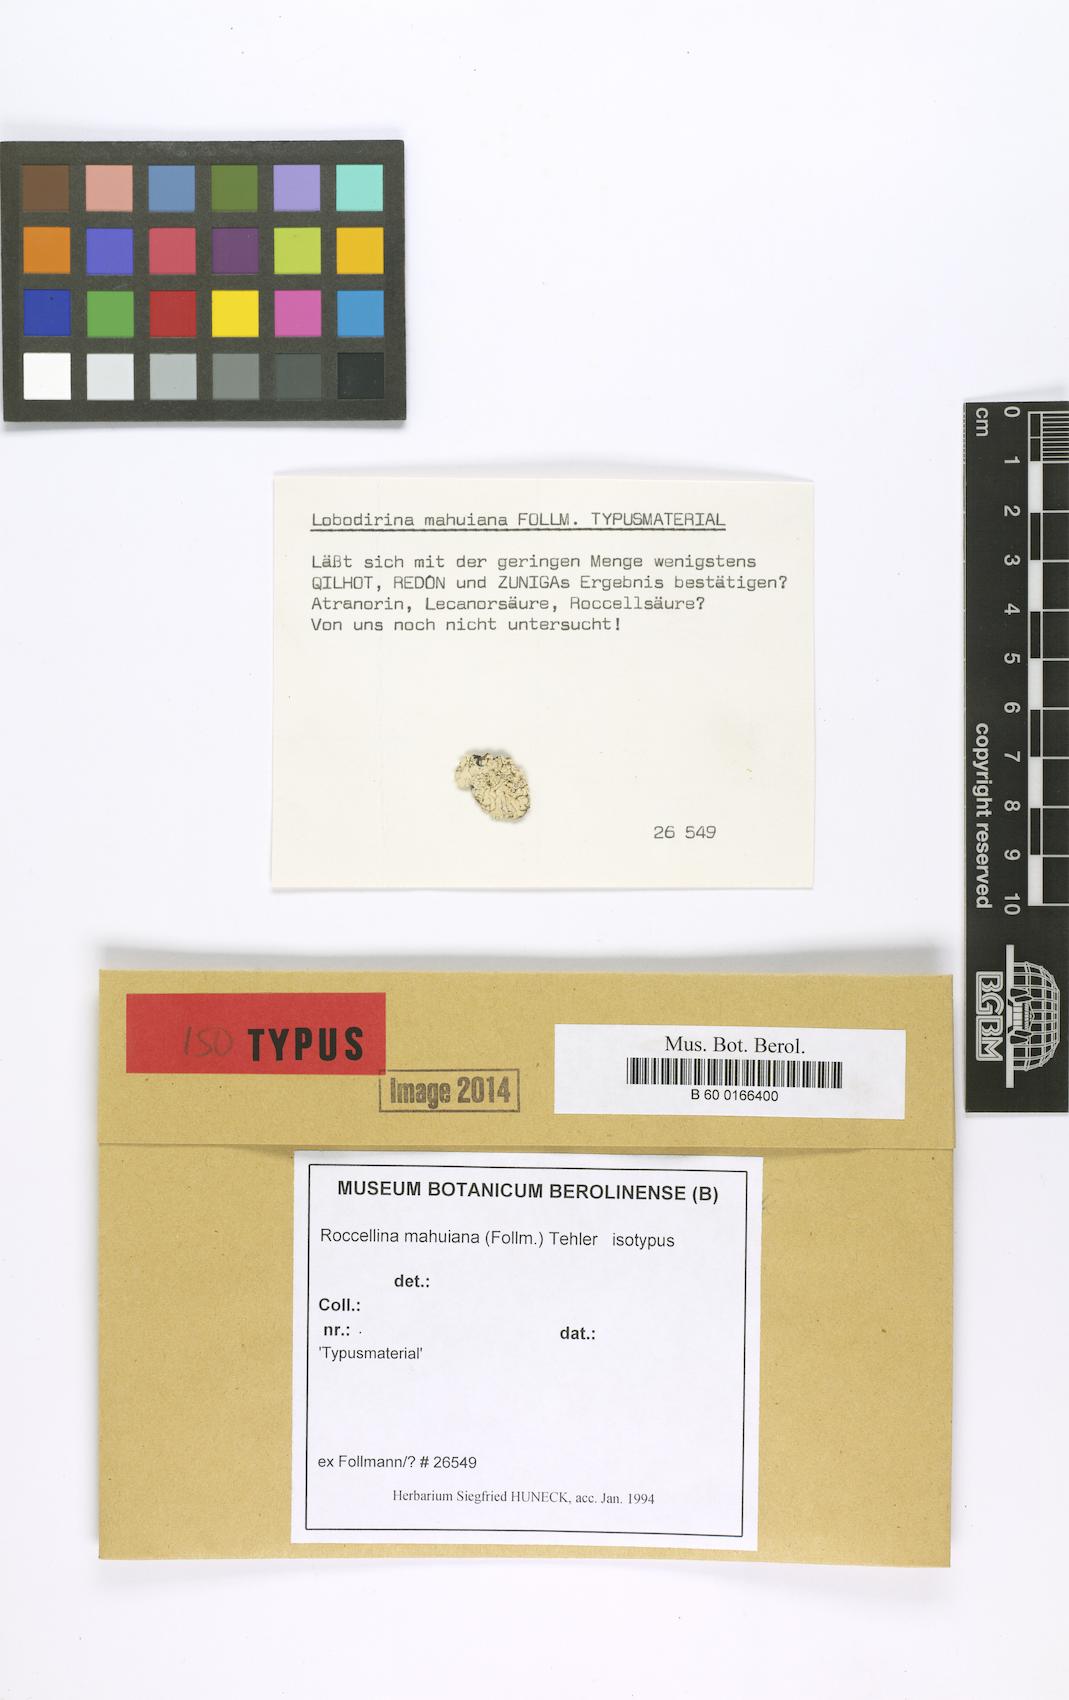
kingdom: Fungi
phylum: Ascomycota
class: Arthoniomycetes
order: Arthoniales
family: Roccellaceae
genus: Roccellina
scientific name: Roccellina mahuiana
